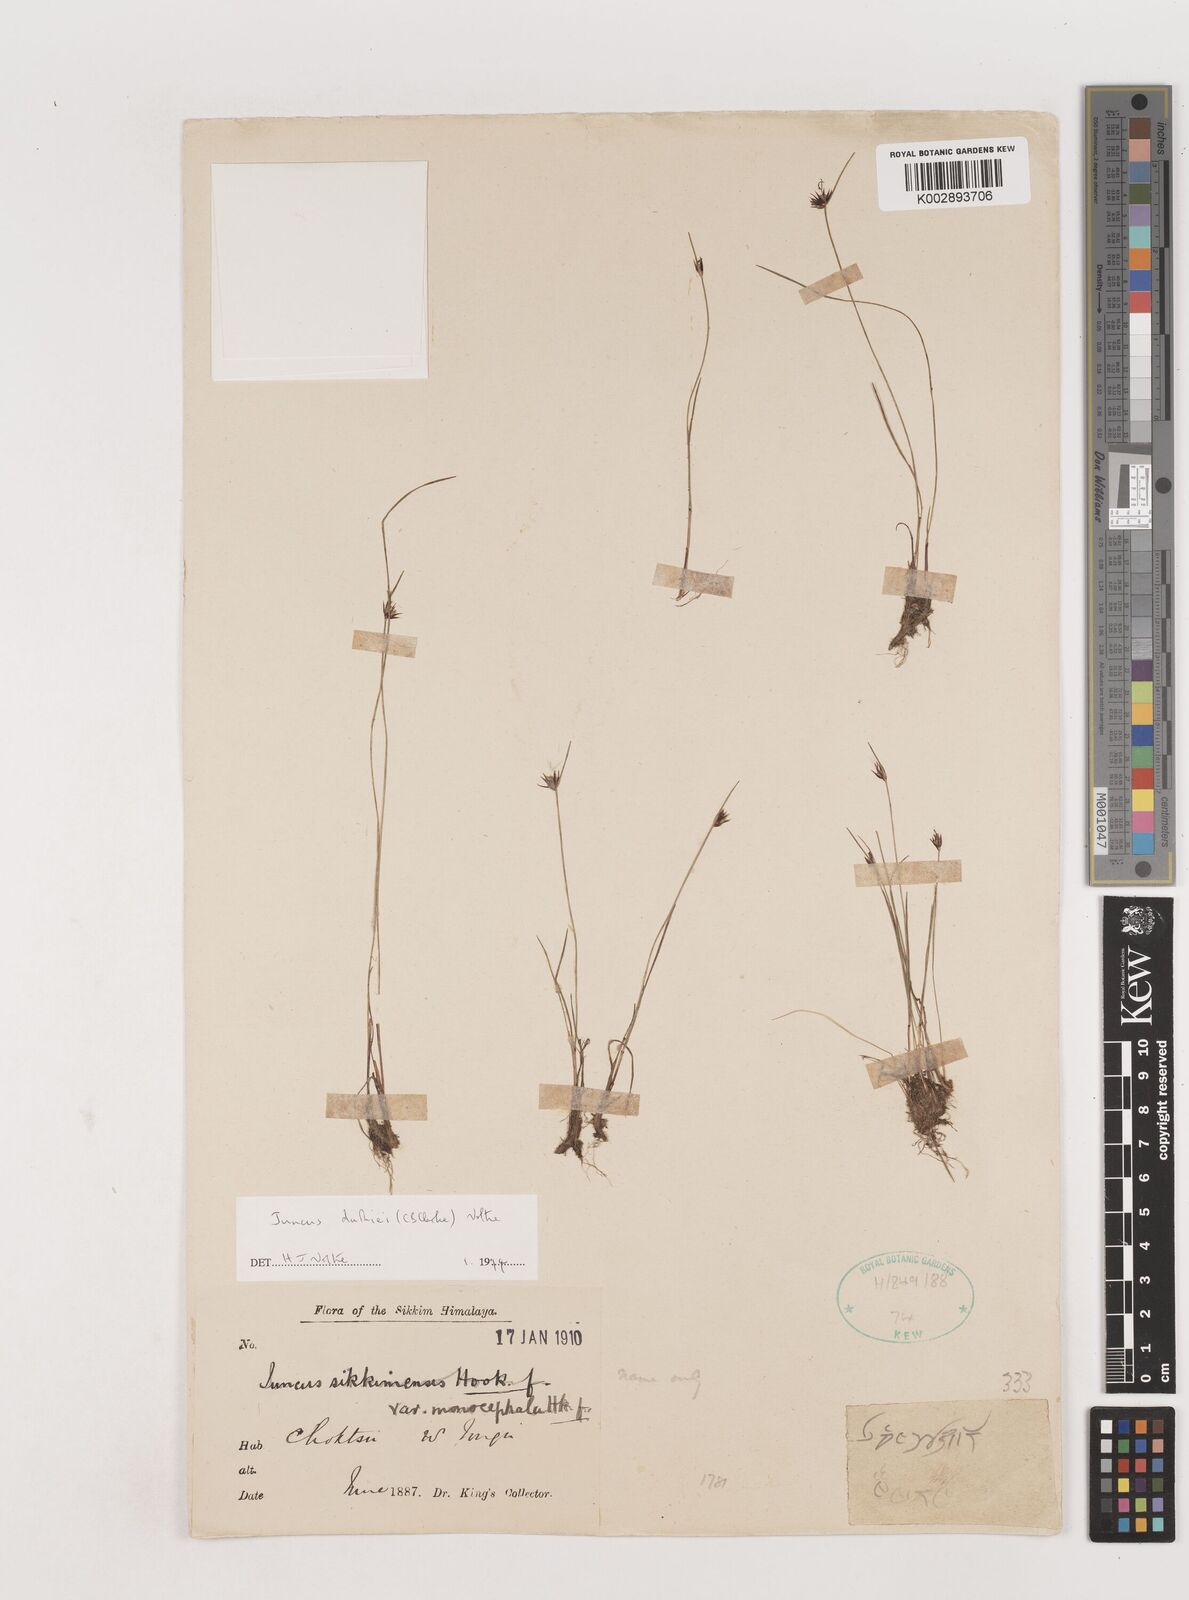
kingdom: Plantae
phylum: Tracheophyta
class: Liliopsida
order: Poales
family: Juncaceae
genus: Juncus
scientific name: Juncus duthiei
